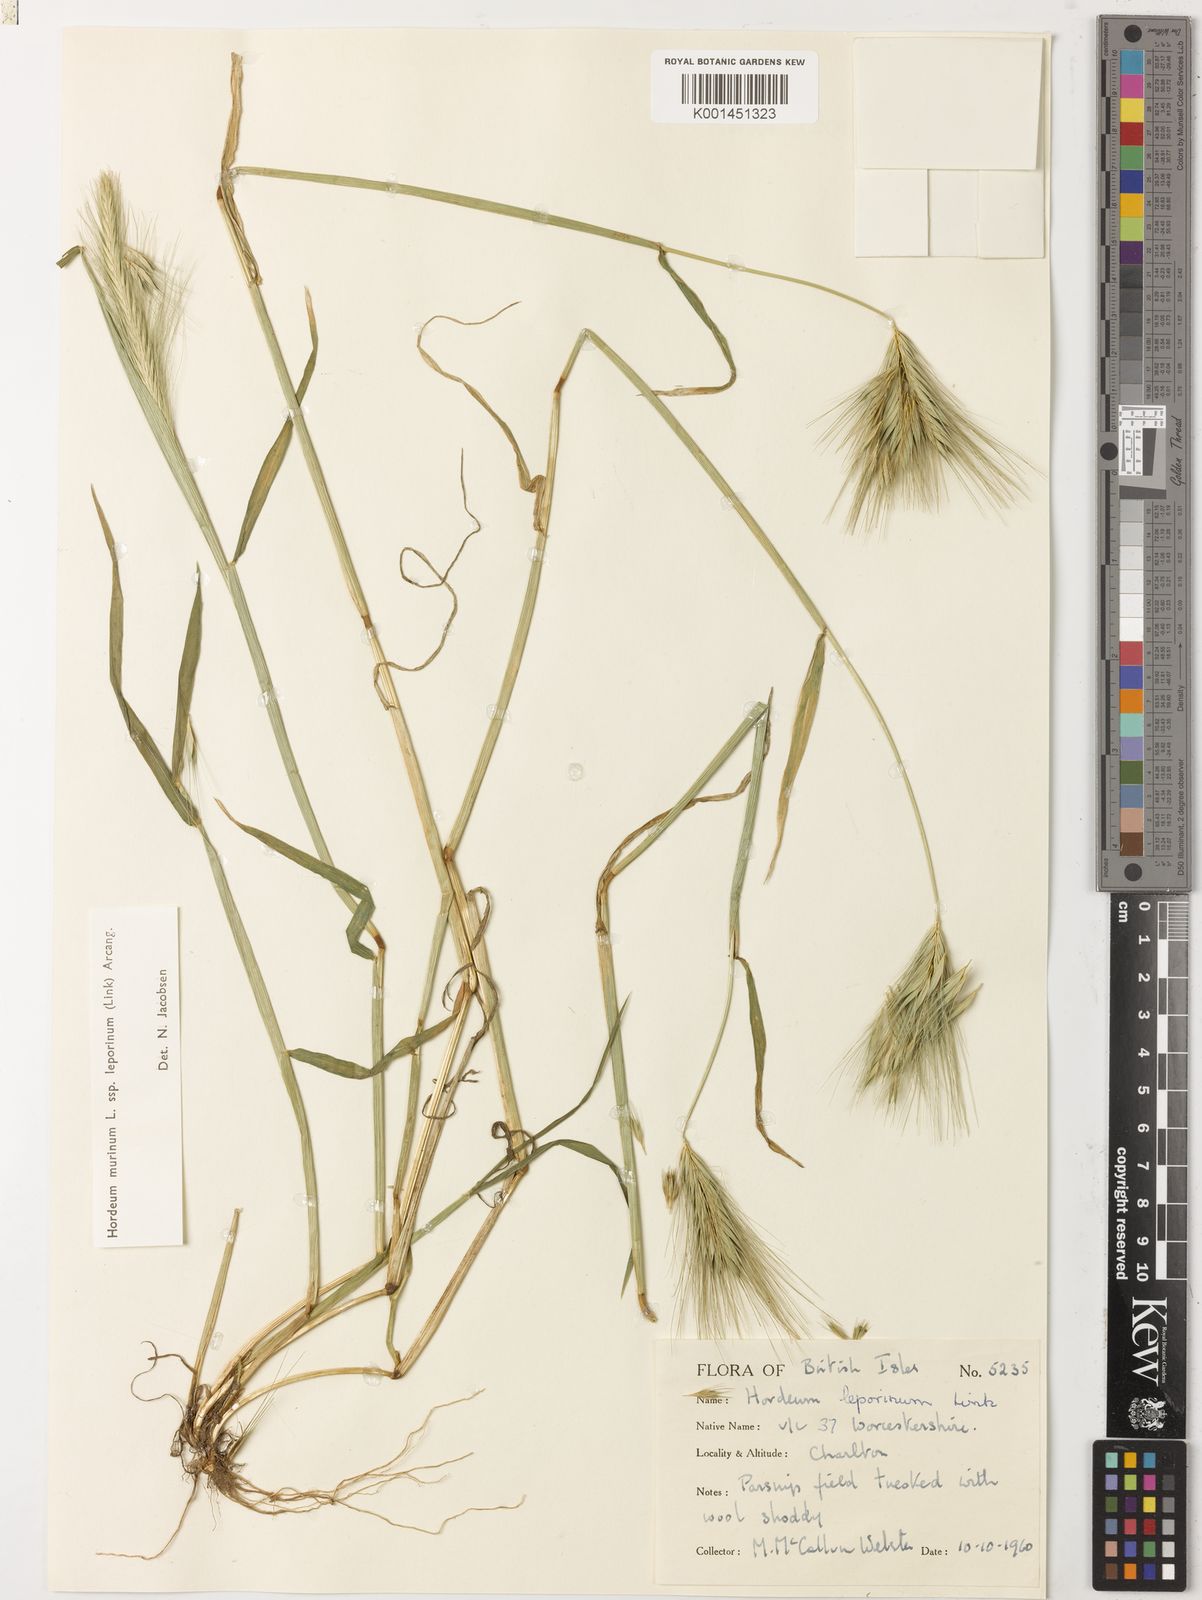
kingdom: Plantae
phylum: Tracheophyta
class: Liliopsida
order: Poales
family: Poaceae
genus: Hordeum
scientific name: Hordeum murinum
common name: Wall barley
